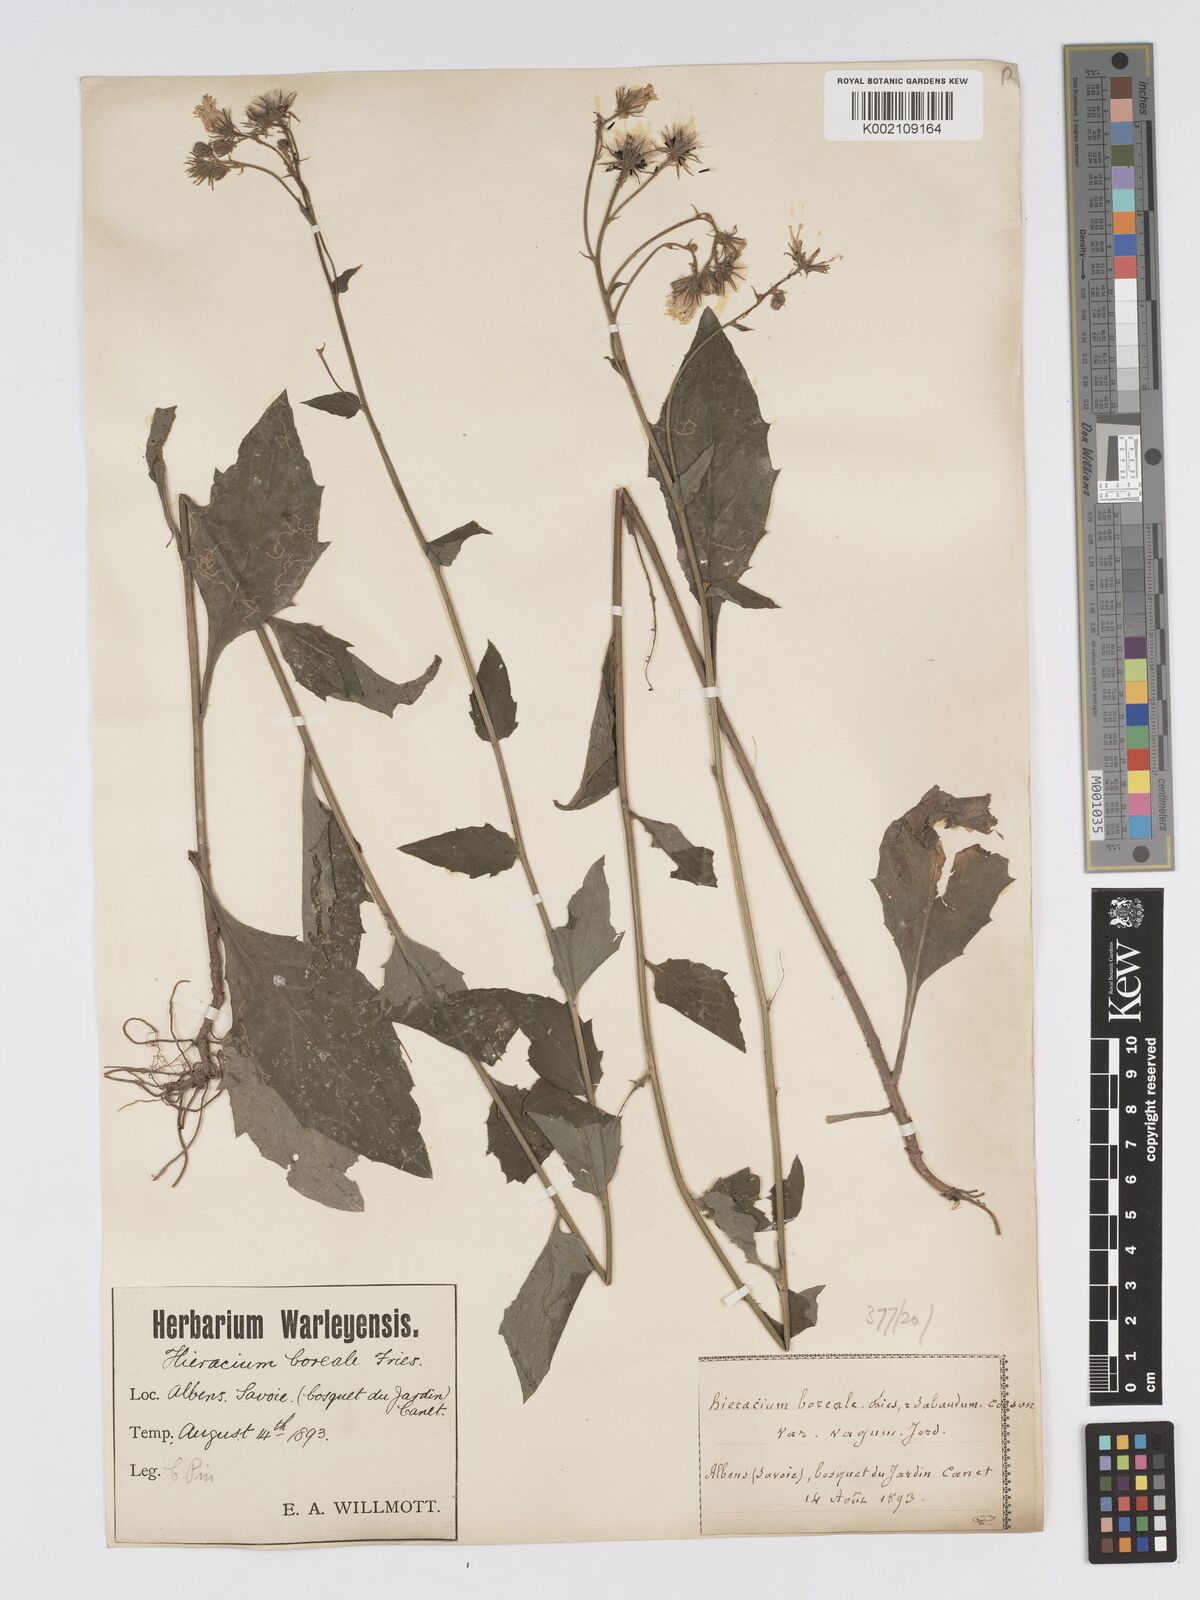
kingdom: Plantae
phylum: Tracheophyta
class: Magnoliopsida
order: Asterales
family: Asteraceae
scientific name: Asteraceae
